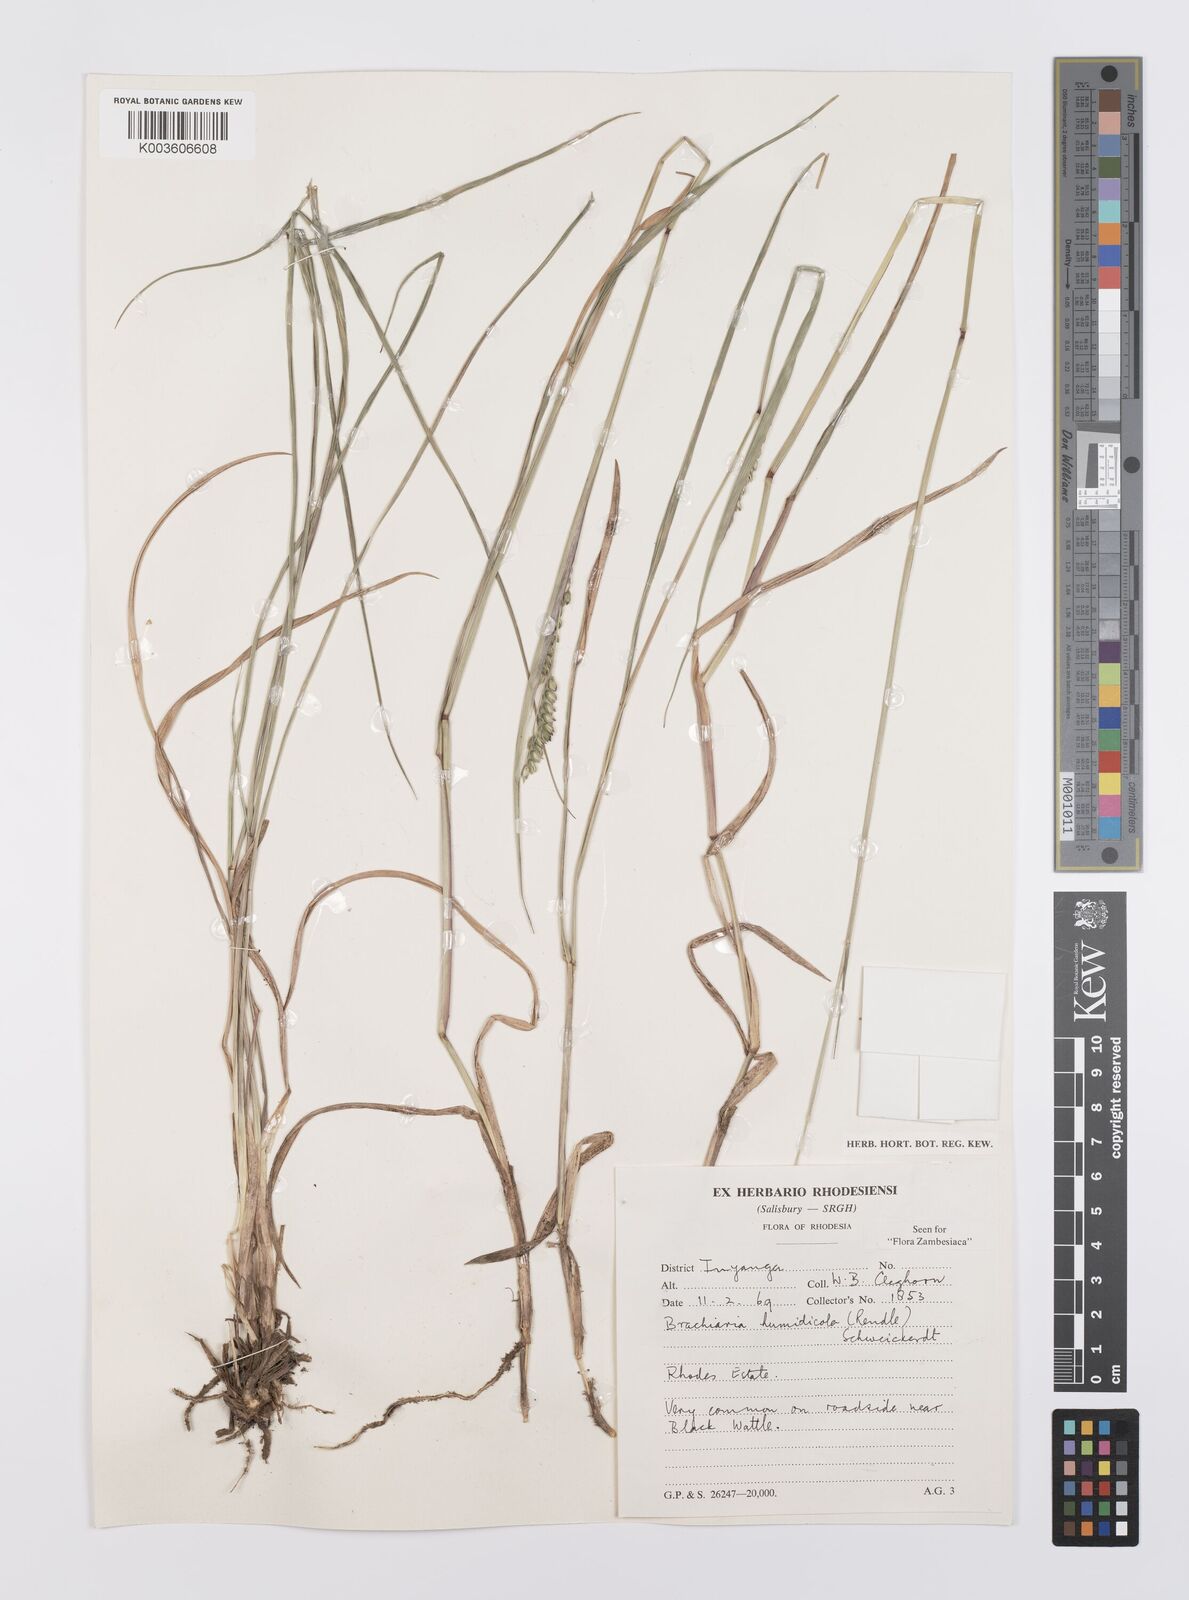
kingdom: Plantae
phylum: Tracheophyta
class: Liliopsida
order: Poales
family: Poaceae
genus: Urochloa
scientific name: Urochloa dictyoneura
